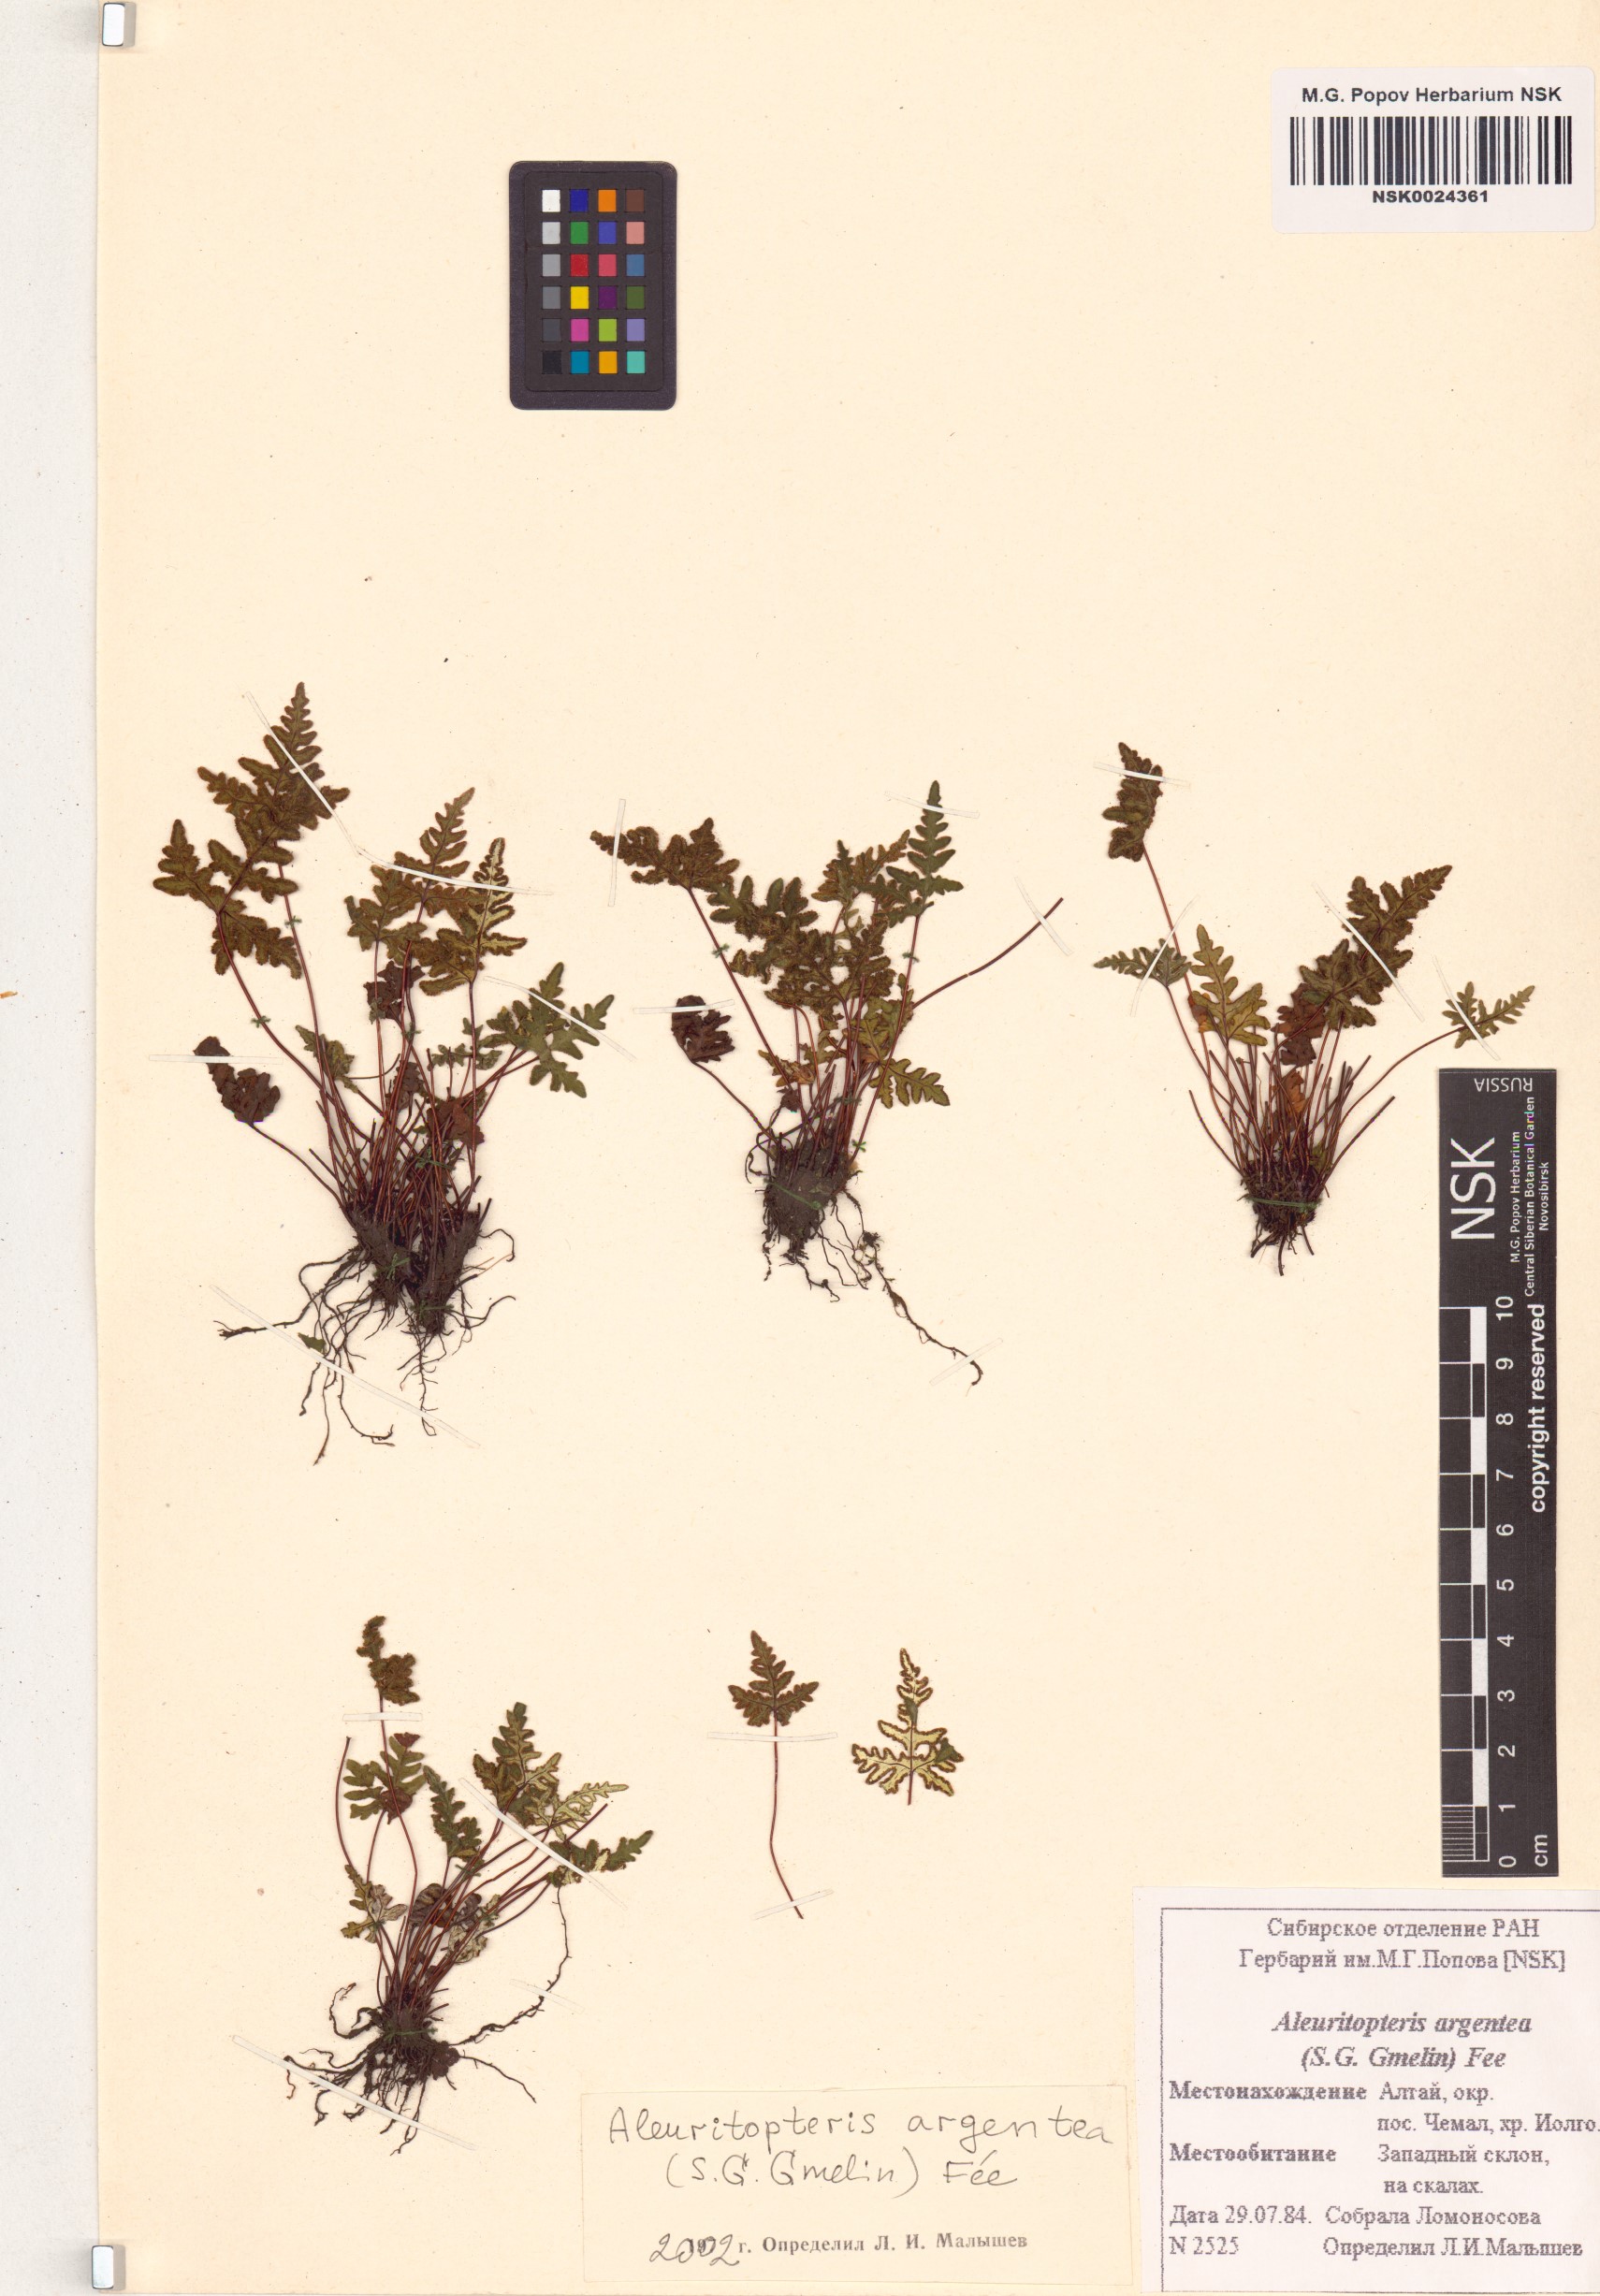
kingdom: Plantae
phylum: Tracheophyta
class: Polypodiopsida
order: Polypodiales
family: Pteridaceae
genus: Aleuritopteris
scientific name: Aleuritopteris argentea
